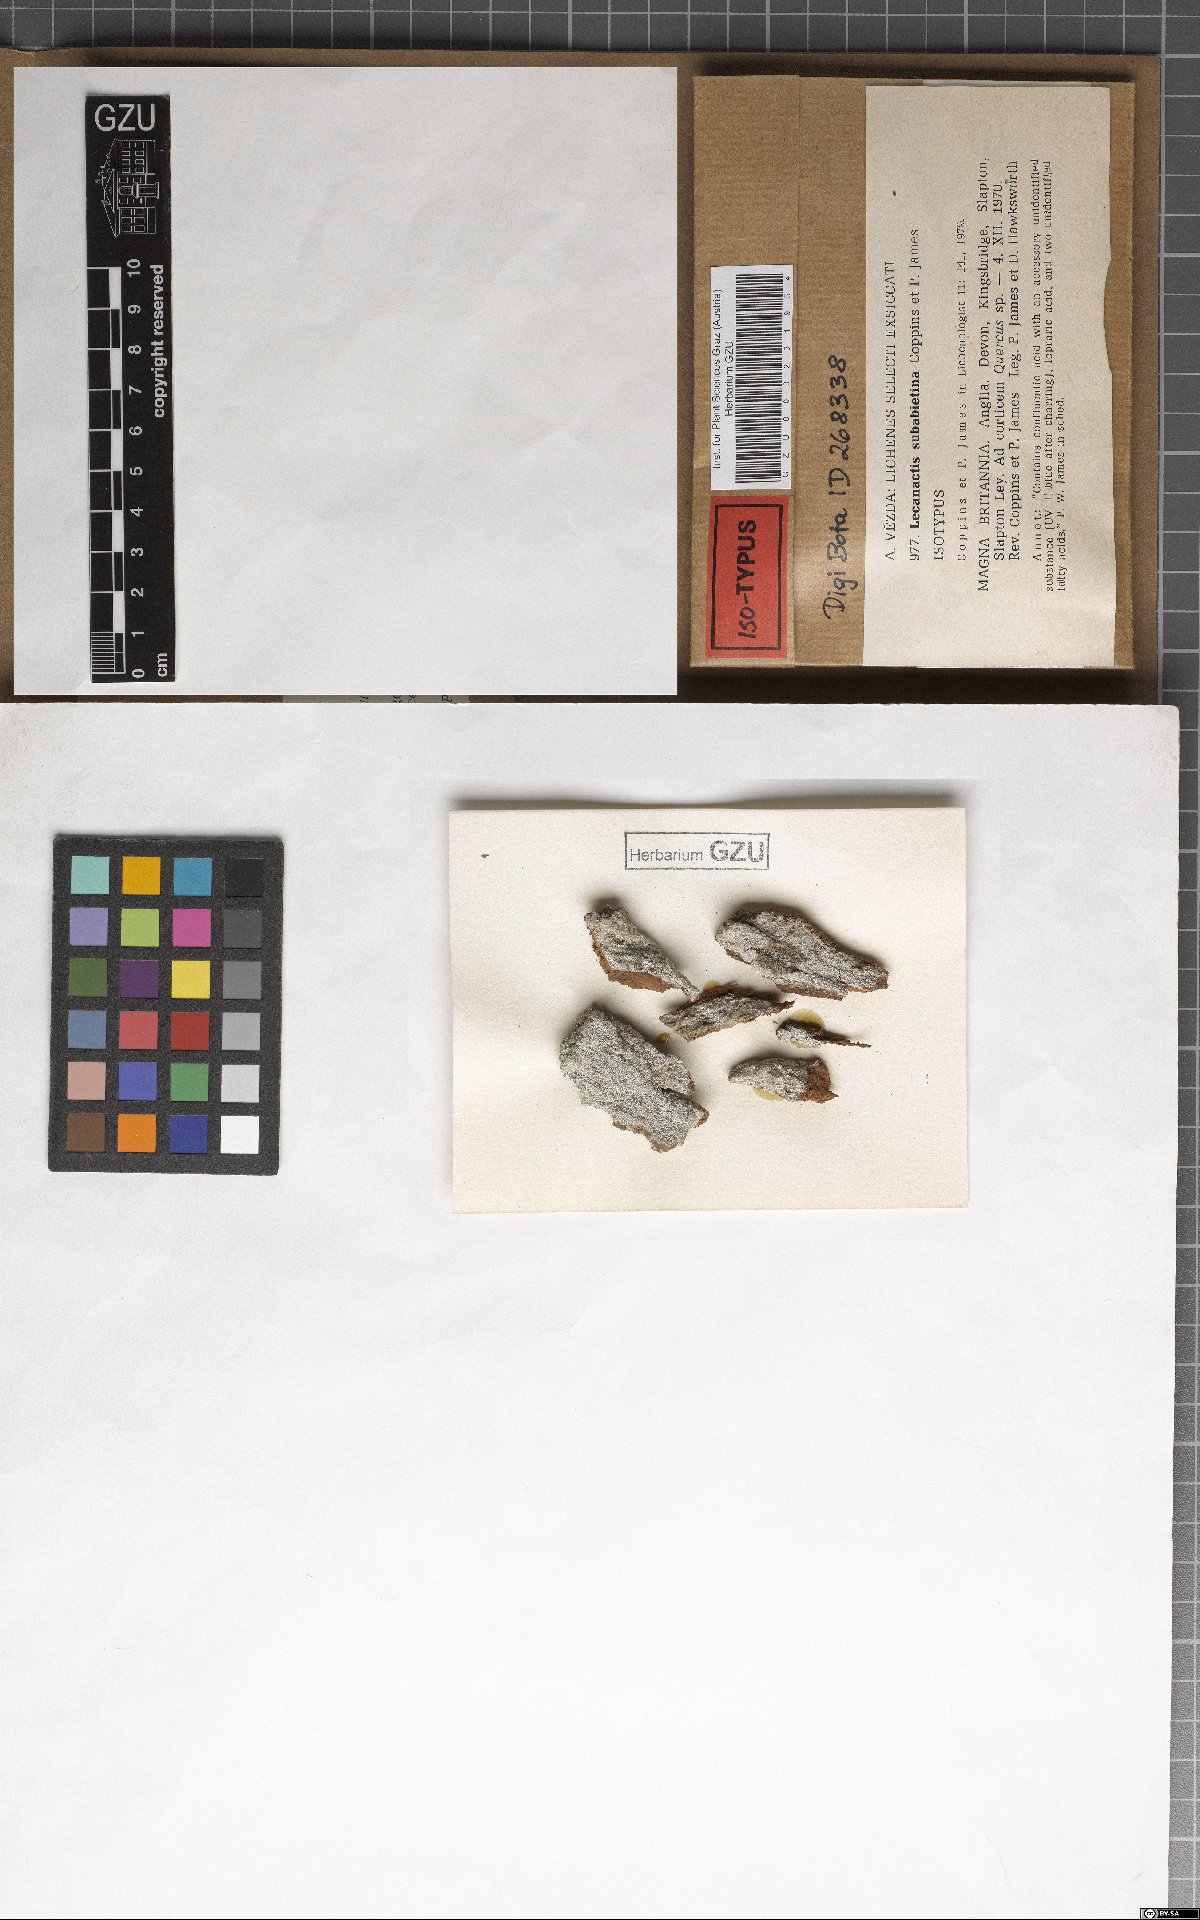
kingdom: Fungi
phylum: Ascomycota
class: Arthoniomycetes
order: Arthoniales
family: Arthoniaceae
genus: Inoderma
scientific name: Inoderma subabietinum
